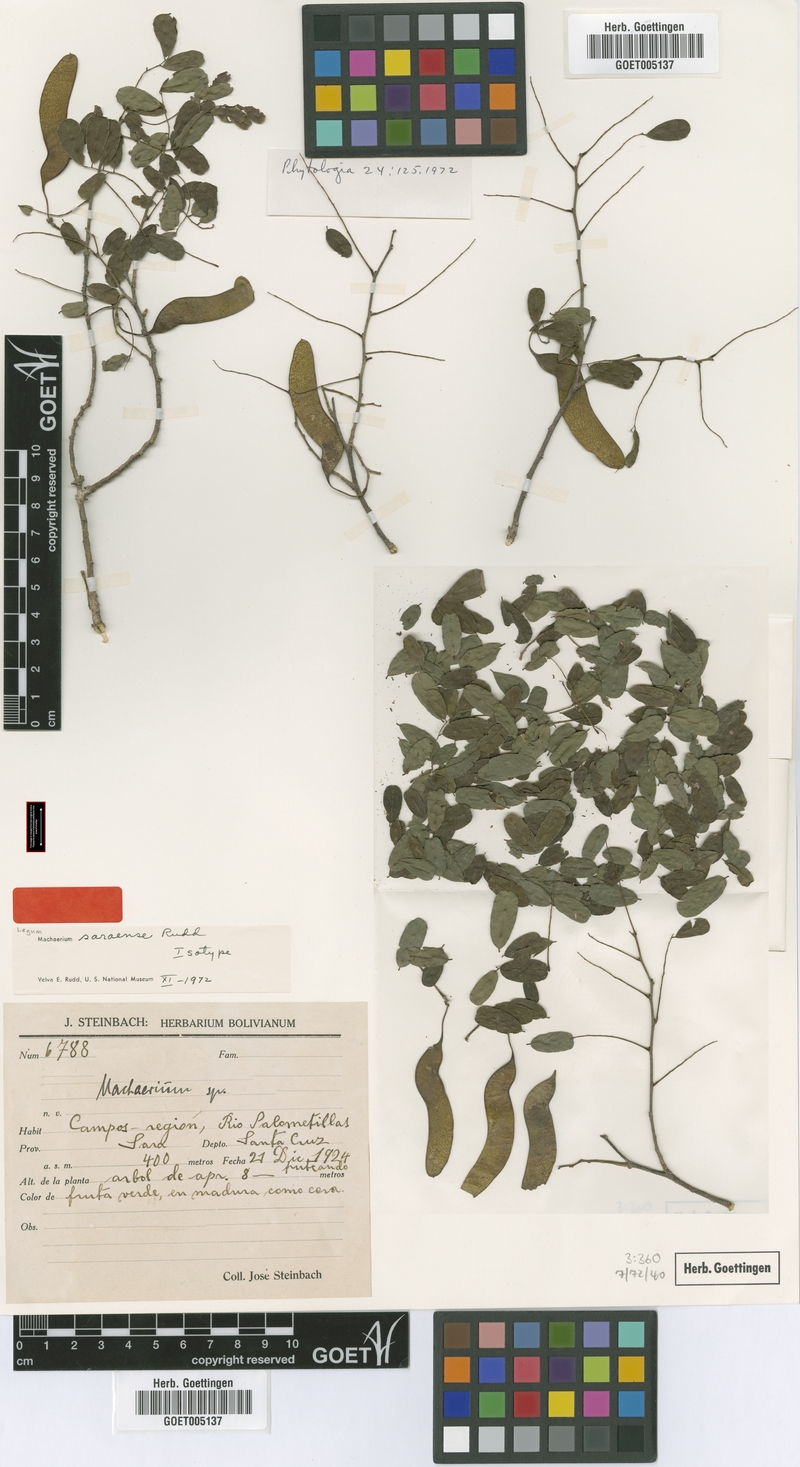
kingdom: Plantae
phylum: Tracheophyta
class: Magnoliopsida
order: Fabales
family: Fabaceae
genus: Steinbachiella
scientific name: Steinbachiella leptoclada
